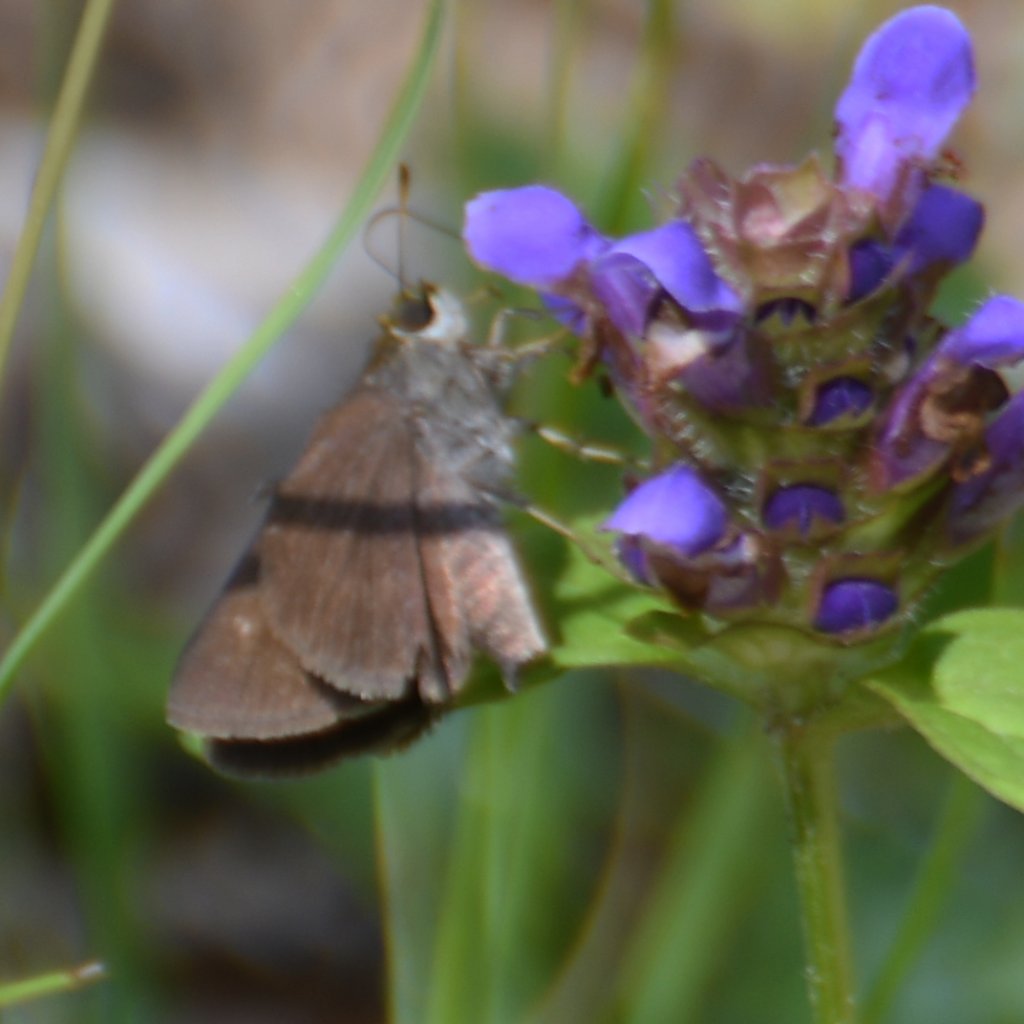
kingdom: Animalia
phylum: Arthropoda
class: Insecta
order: Lepidoptera
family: Hesperiidae
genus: Euphyes
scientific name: Euphyes vestris
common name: Dun Skipper
